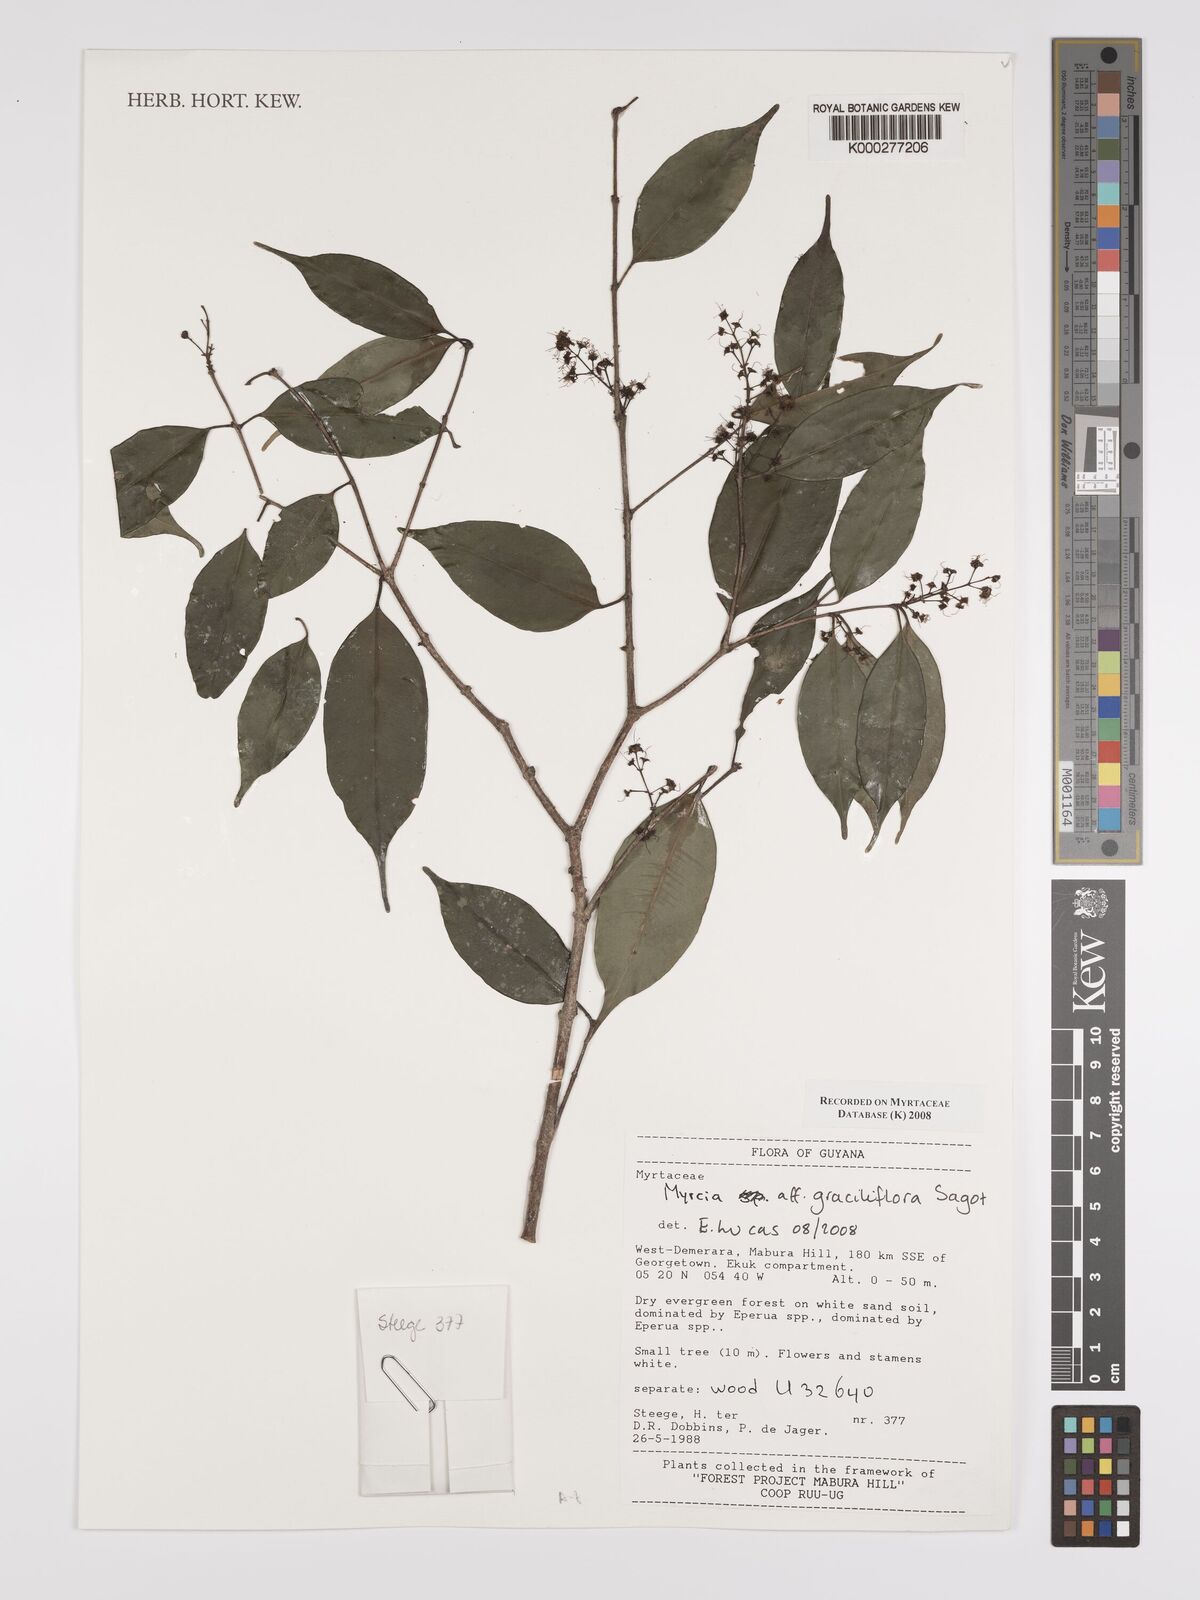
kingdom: Plantae
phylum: Tracheophyta
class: Magnoliopsida
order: Myrtales
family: Myrtaceae
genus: Myrcia
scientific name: Myrcia graciliflora
